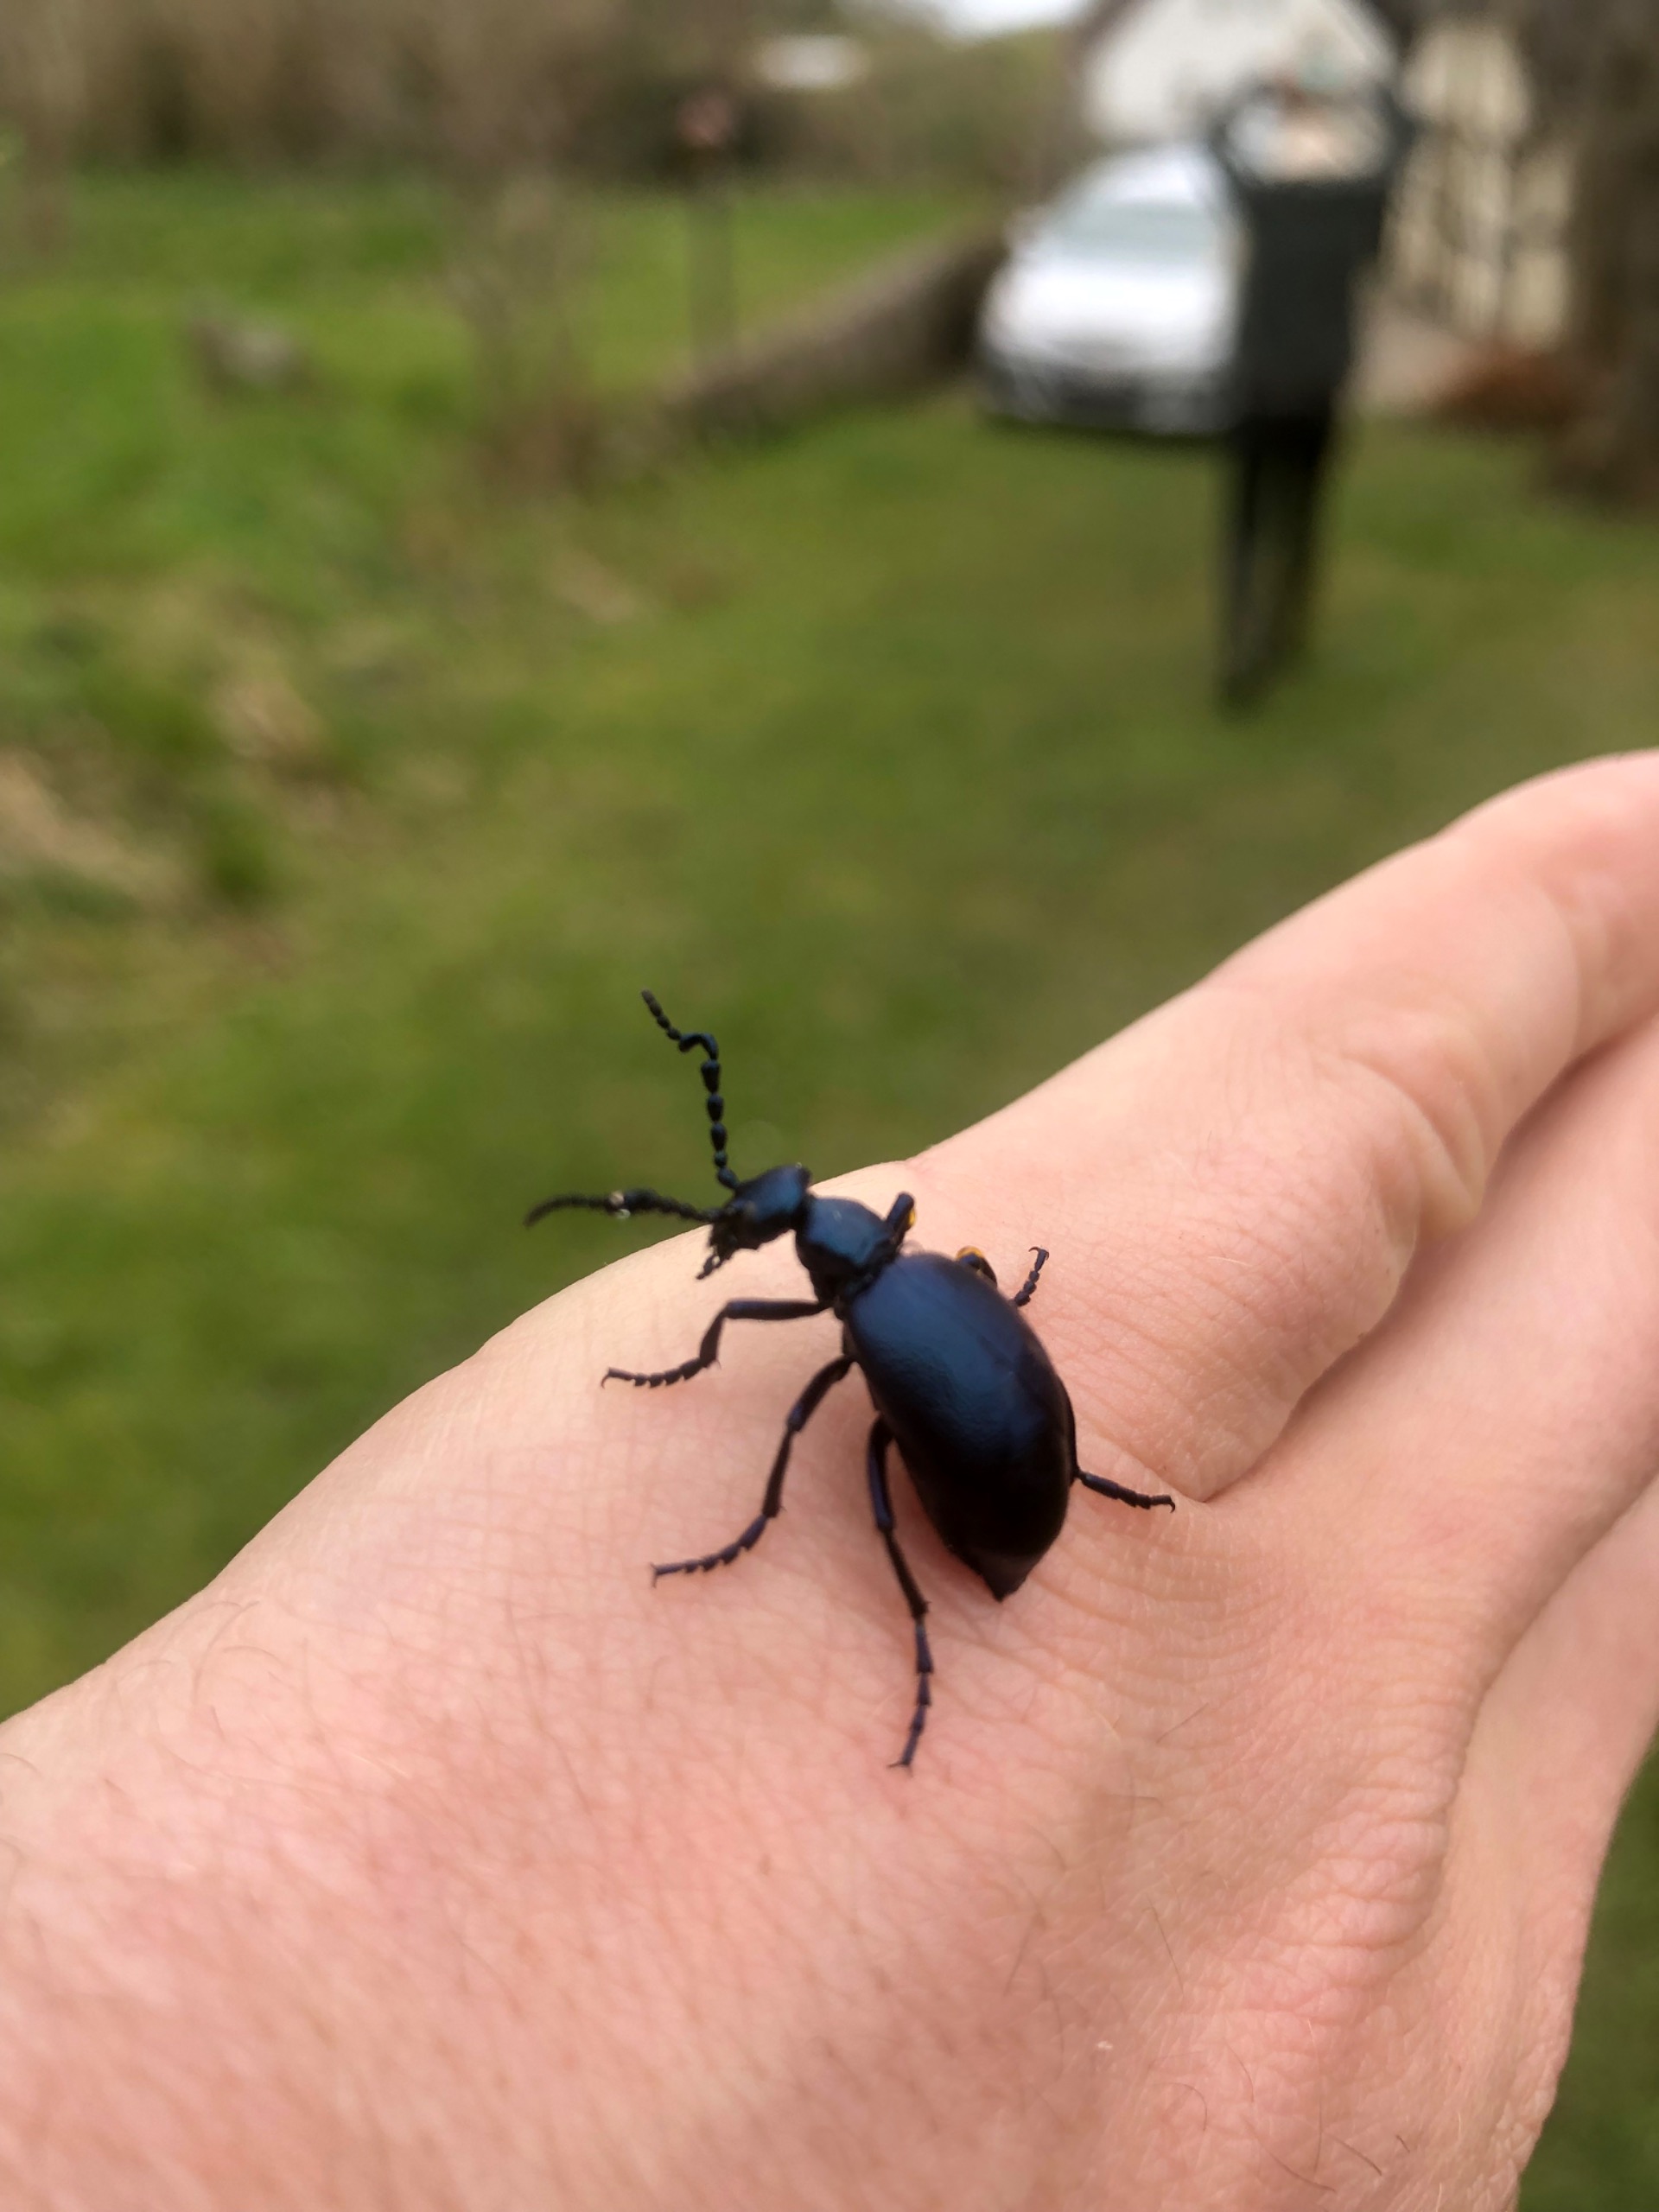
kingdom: Animalia
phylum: Arthropoda
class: Insecta
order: Coleoptera
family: Meloidae
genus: Meloe
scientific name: Meloe violaceus
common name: Blå oliebille
